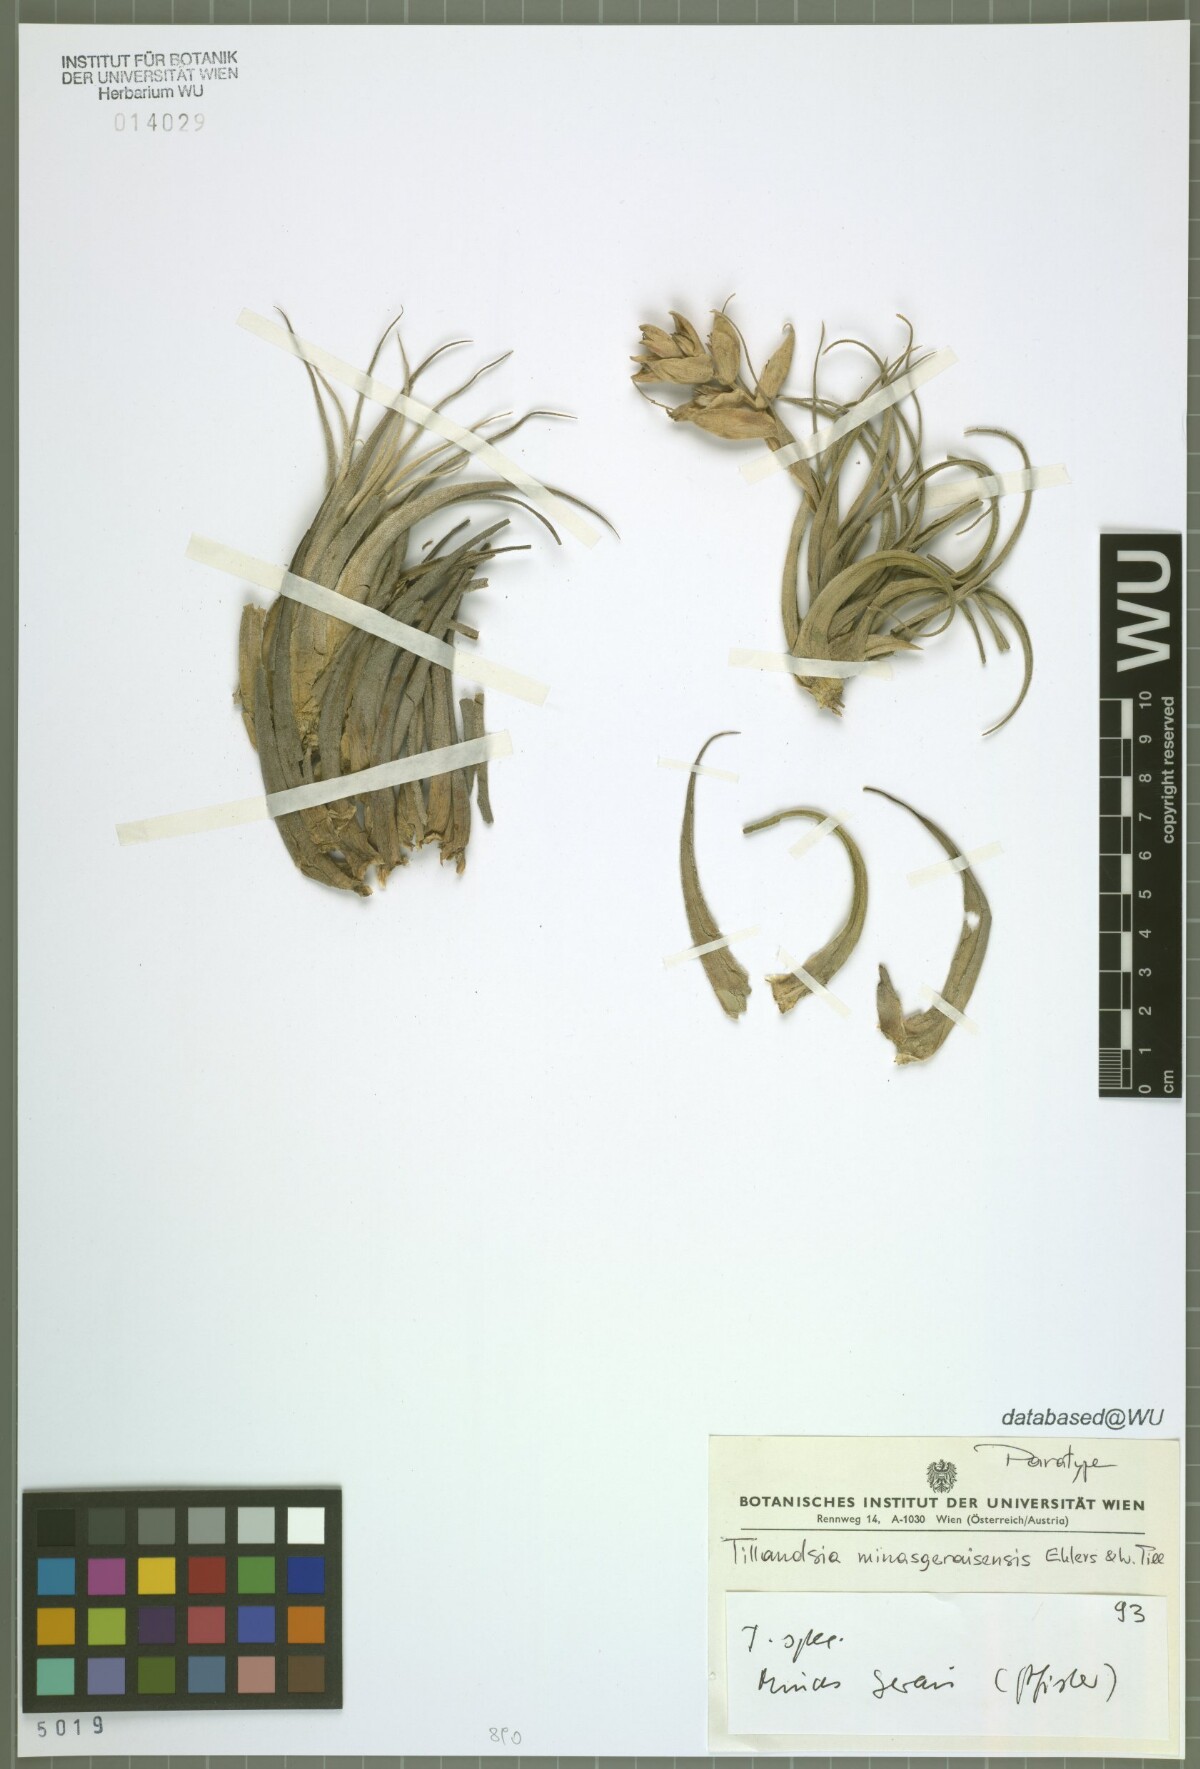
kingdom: Plantae
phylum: Tracheophyta
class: Liliopsida
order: Poales
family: Bromeliaceae
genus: Tillandsia
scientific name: Tillandsia minasgeraisensis
